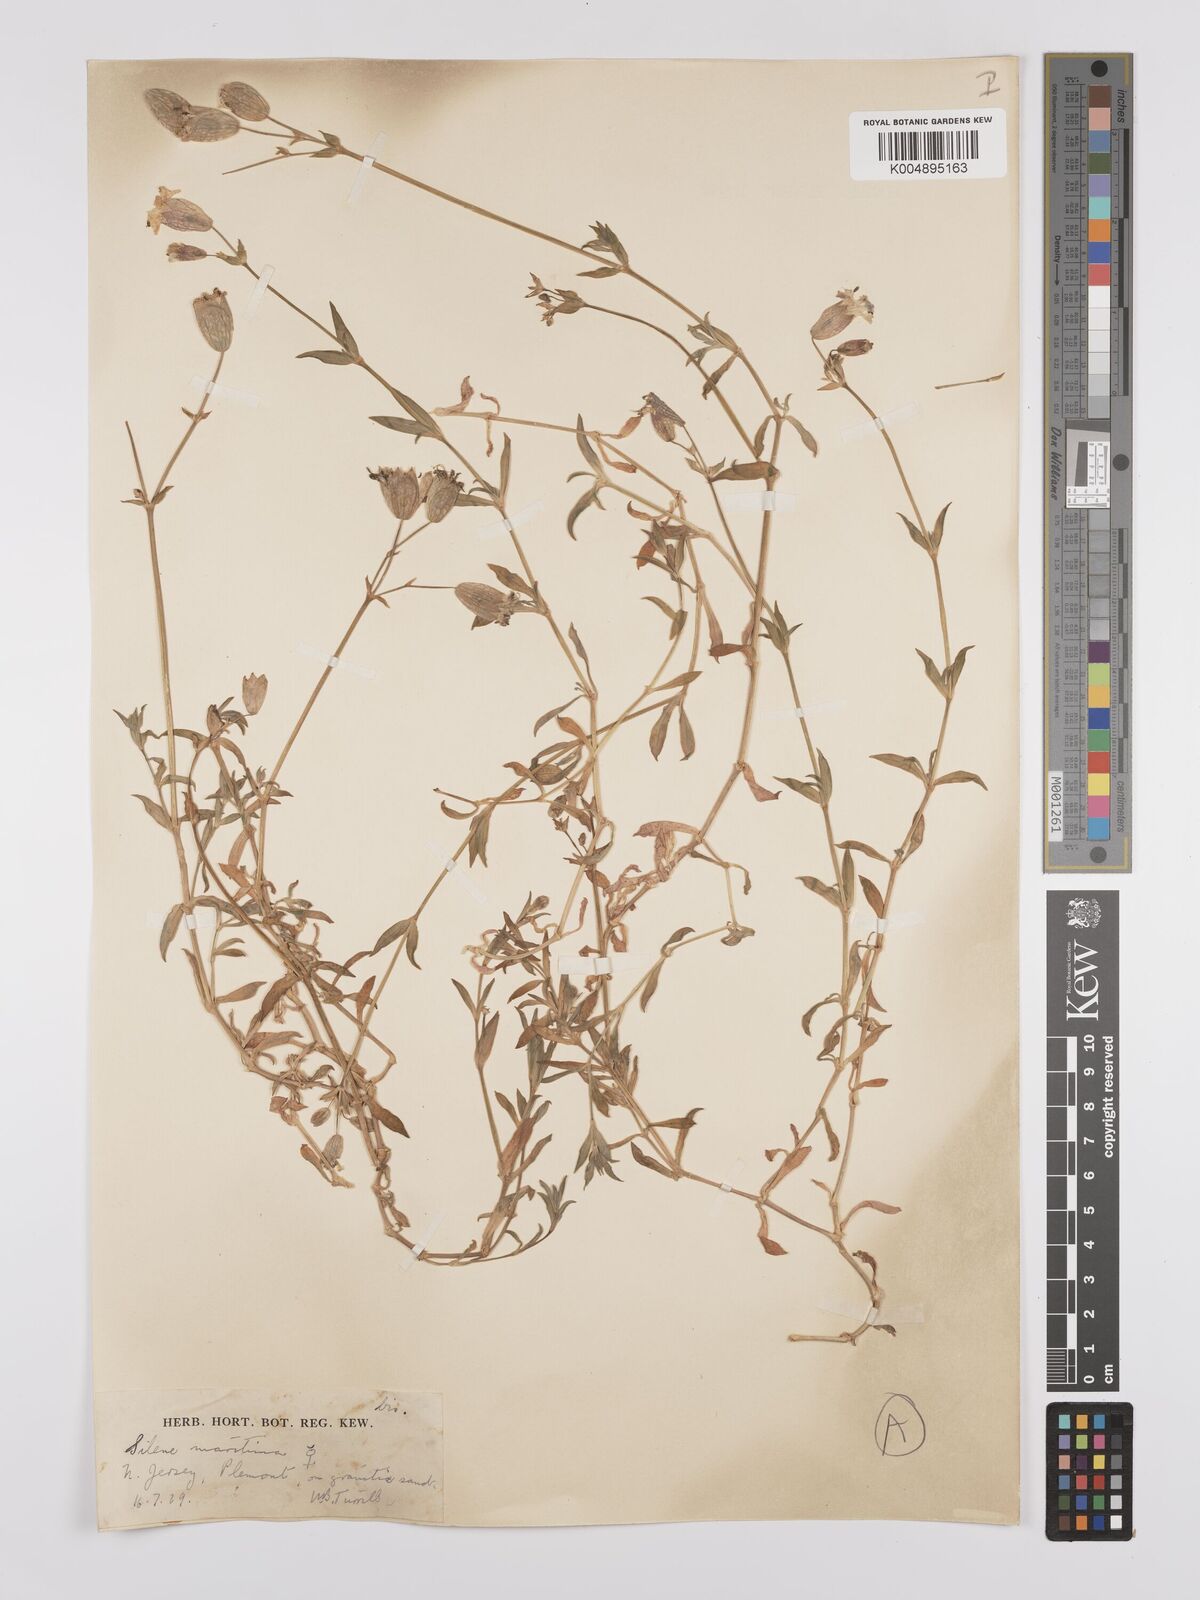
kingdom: Plantae
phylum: Tracheophyta
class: Magnoliopsida
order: Caryophyllales
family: Caryophyllaceae
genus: Silene
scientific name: Silene uniflora
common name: Sea campion
